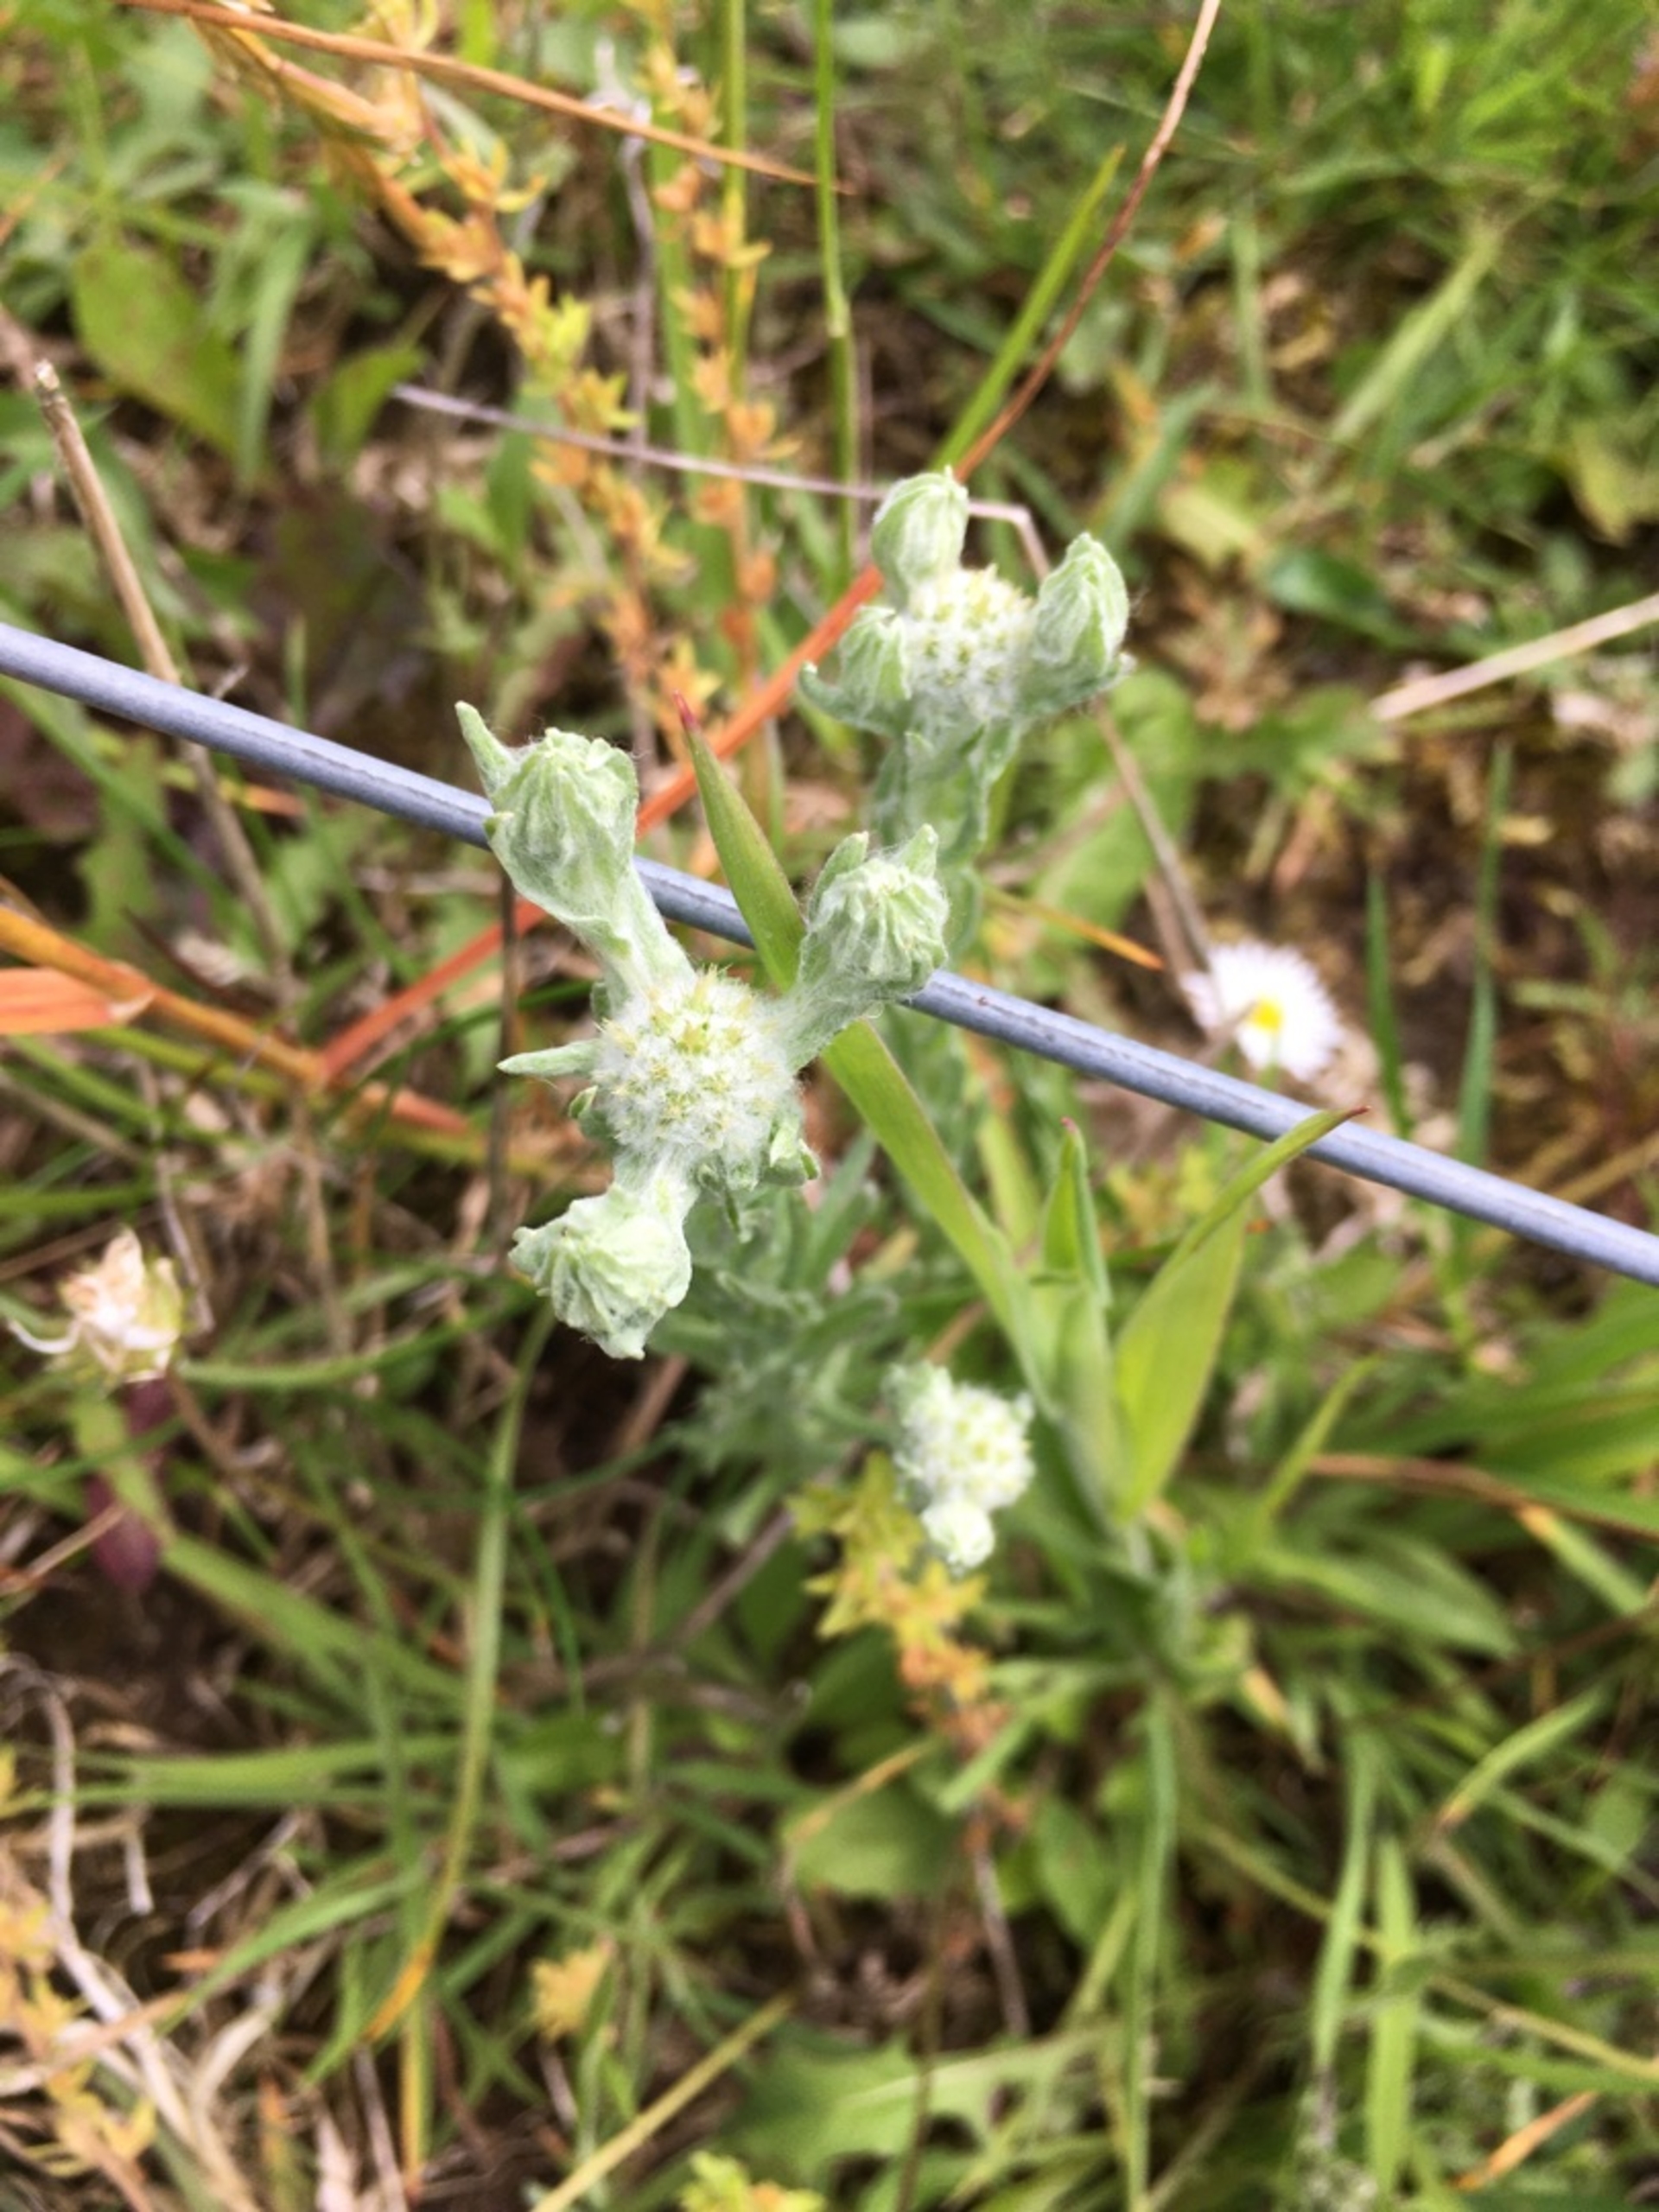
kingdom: Plantae
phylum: Tracheophyta
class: Magnoliopsida
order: Asterales
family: Asteraceae
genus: Filago
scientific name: Filago germanica
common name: Kugle-museurt
